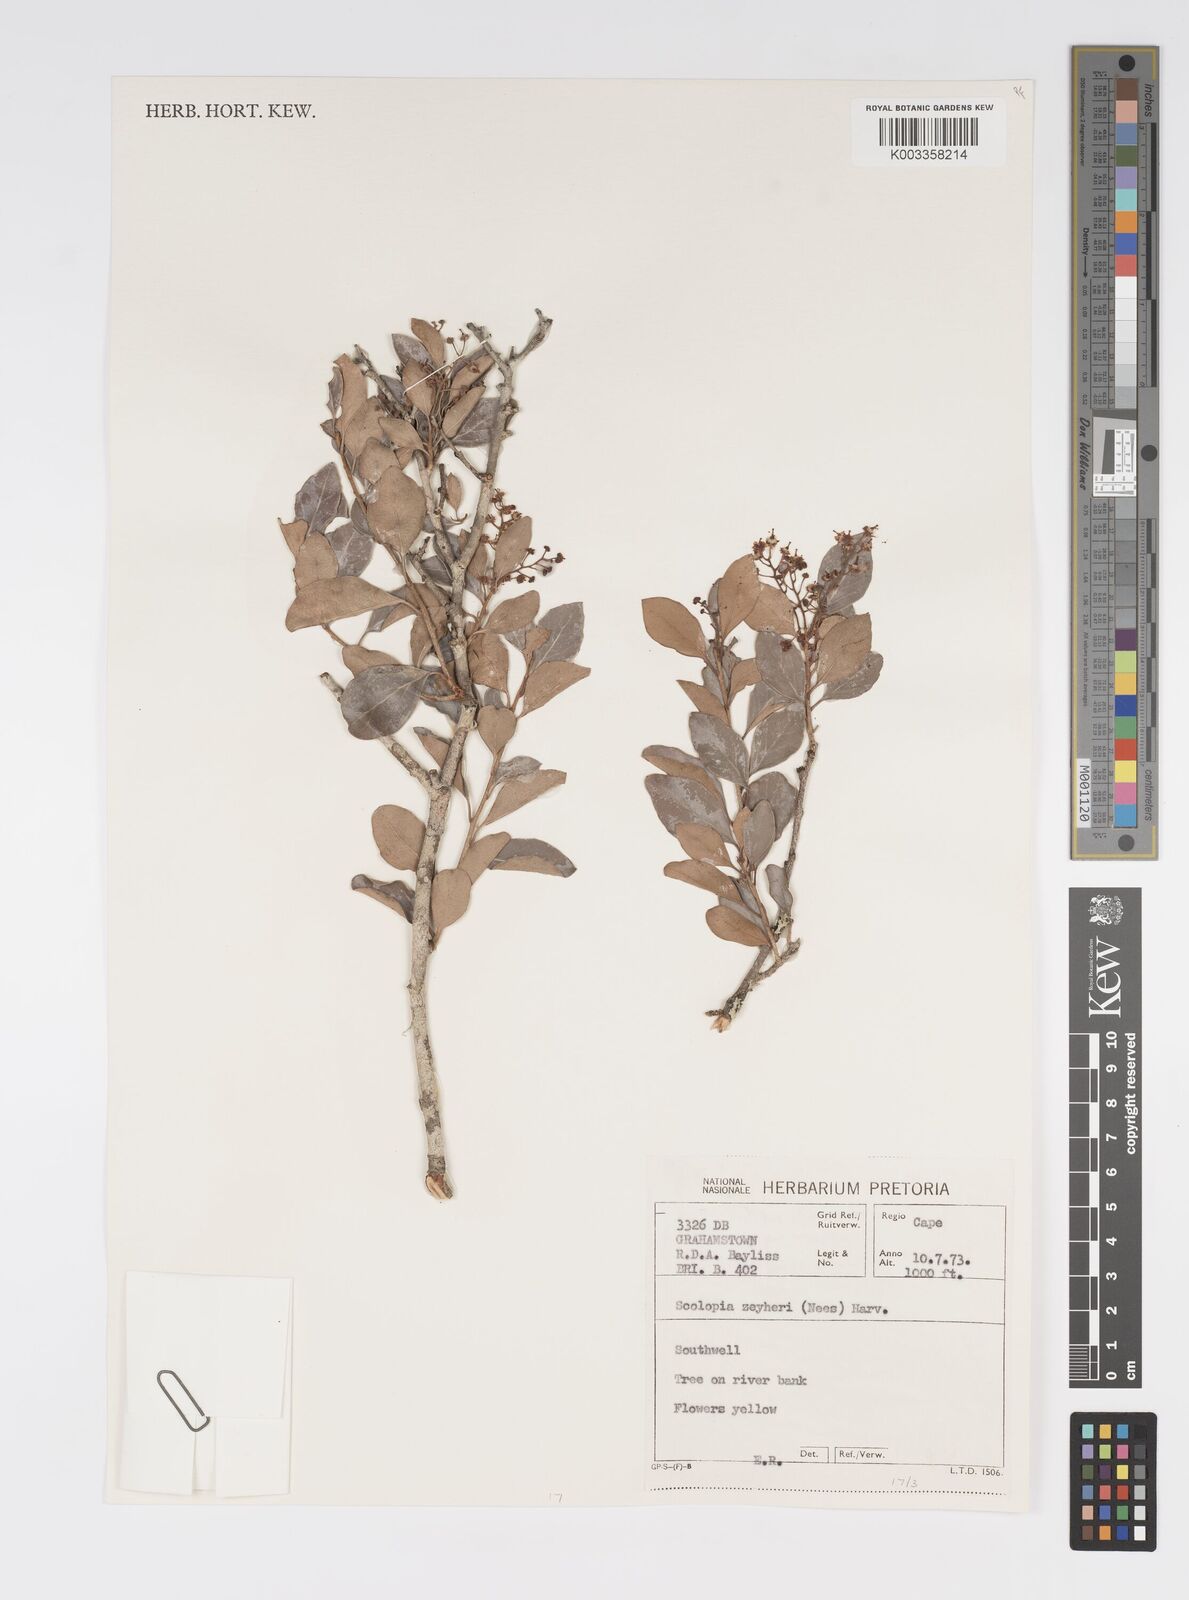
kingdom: Plantae
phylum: Tracheophyta
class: Magnoliopsida
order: Malpighiales
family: Salicaceae
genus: Scolopia
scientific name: Scolopia zeyheri
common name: Thorn pear
